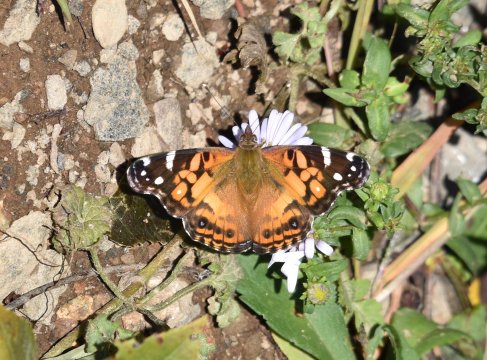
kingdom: Animalia
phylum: Arthropoda
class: Insecta
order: Lepidoptera
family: Nymphalidae
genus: Vanessa
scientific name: Vanessa virginiensis
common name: American Lady
